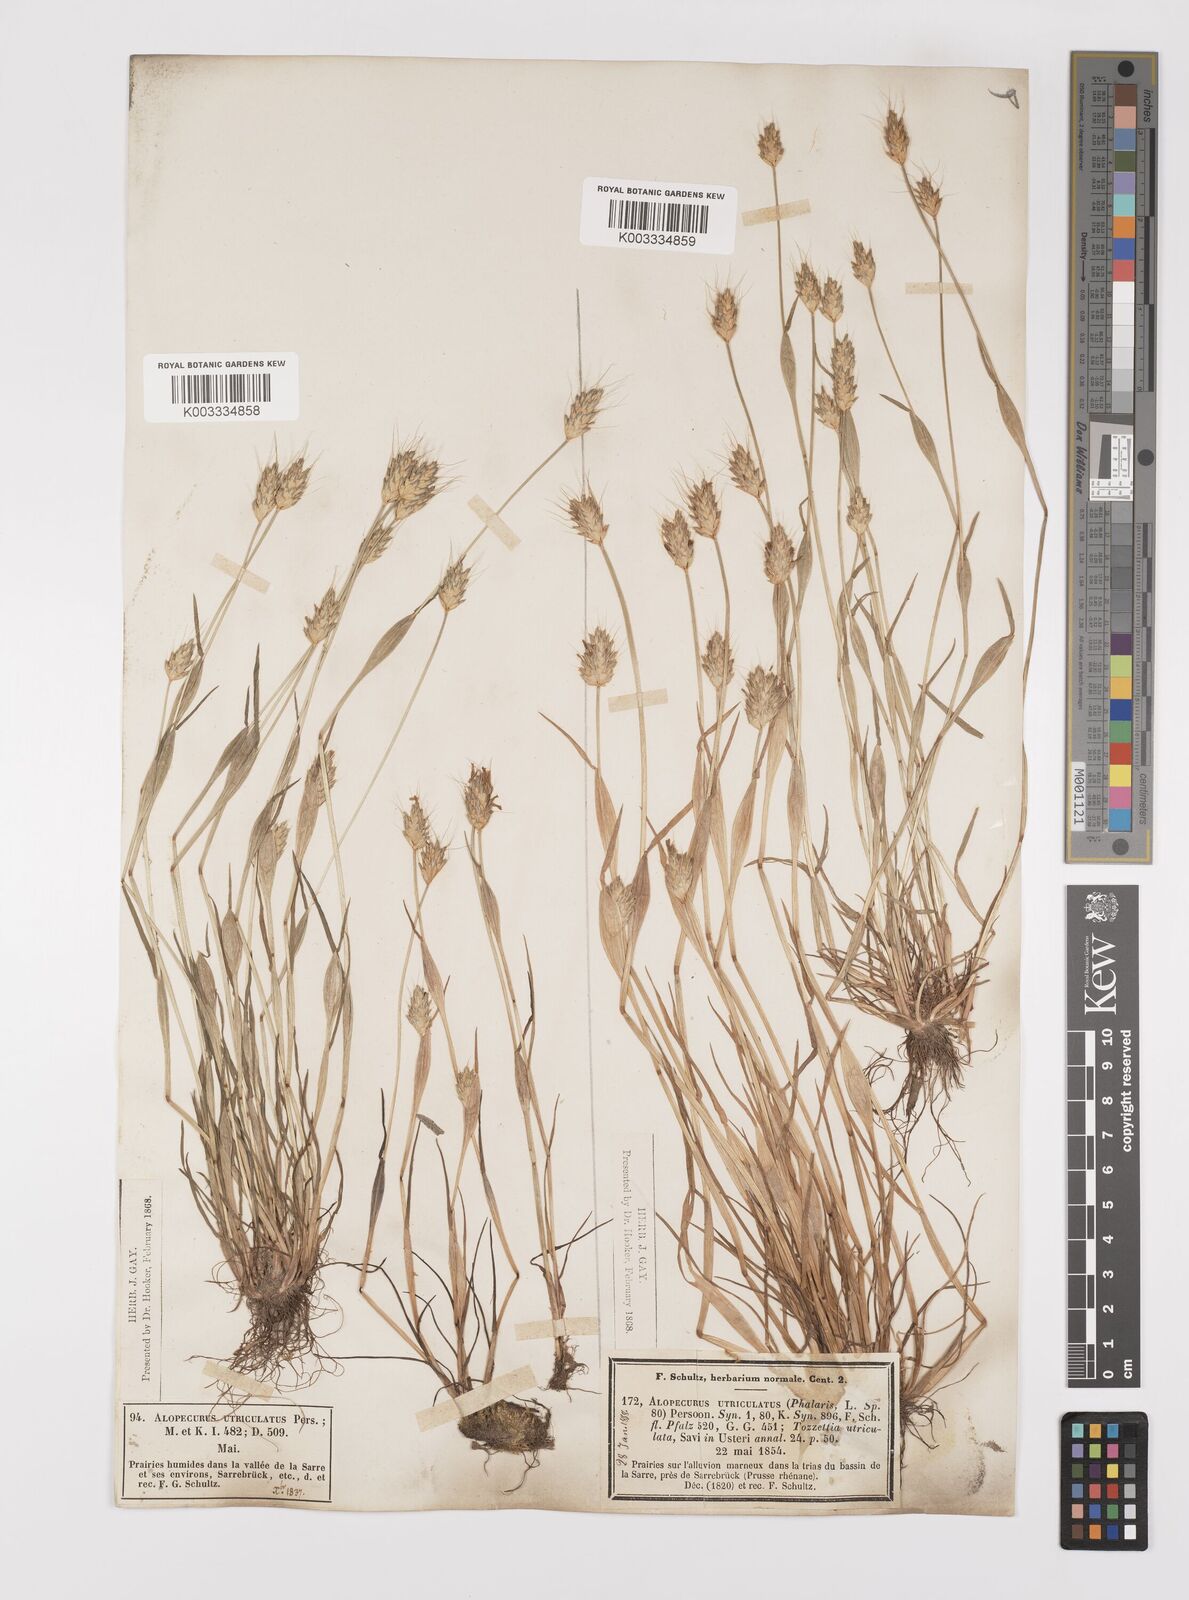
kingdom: Plantae
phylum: Tracheophyta
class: Liliopsida
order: Poales
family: Poaceae
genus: Alopecurus
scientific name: Alopecurus rendlei
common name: Rendle's meadow foxtail
